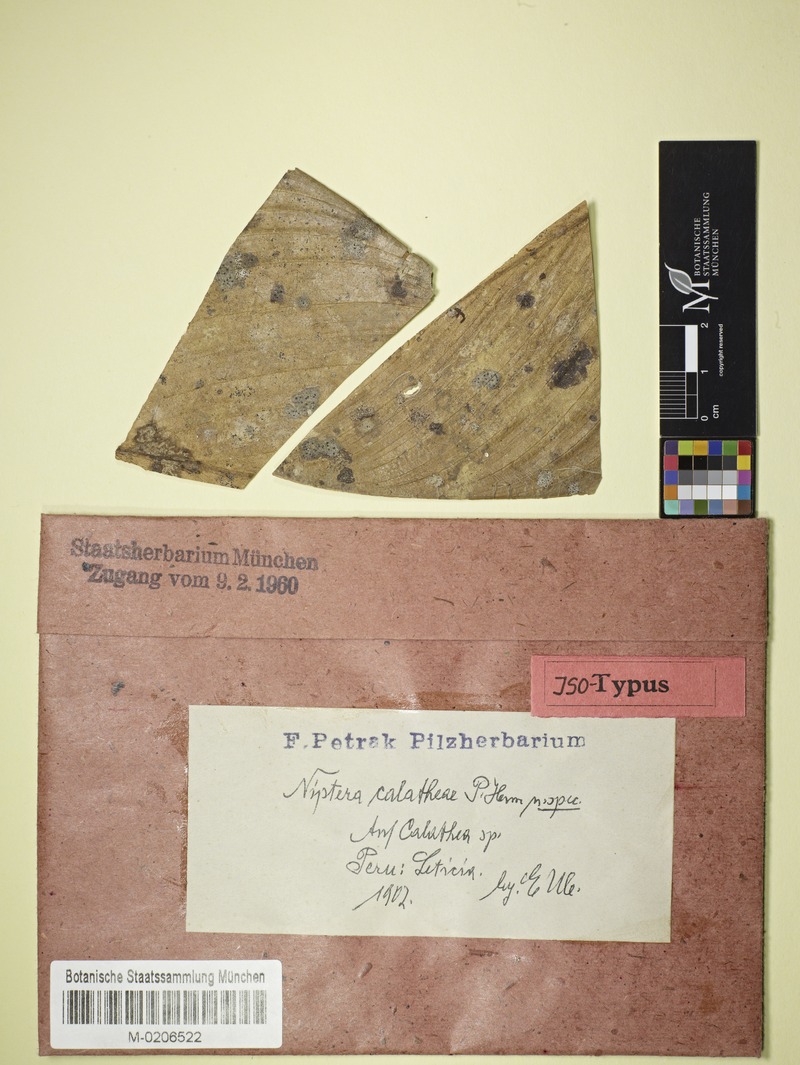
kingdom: Fungi
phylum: Ascomycota
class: Leotiomycetes
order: Helotiales
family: Mollisiaceae
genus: Niptera
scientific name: Niptera calatheae
